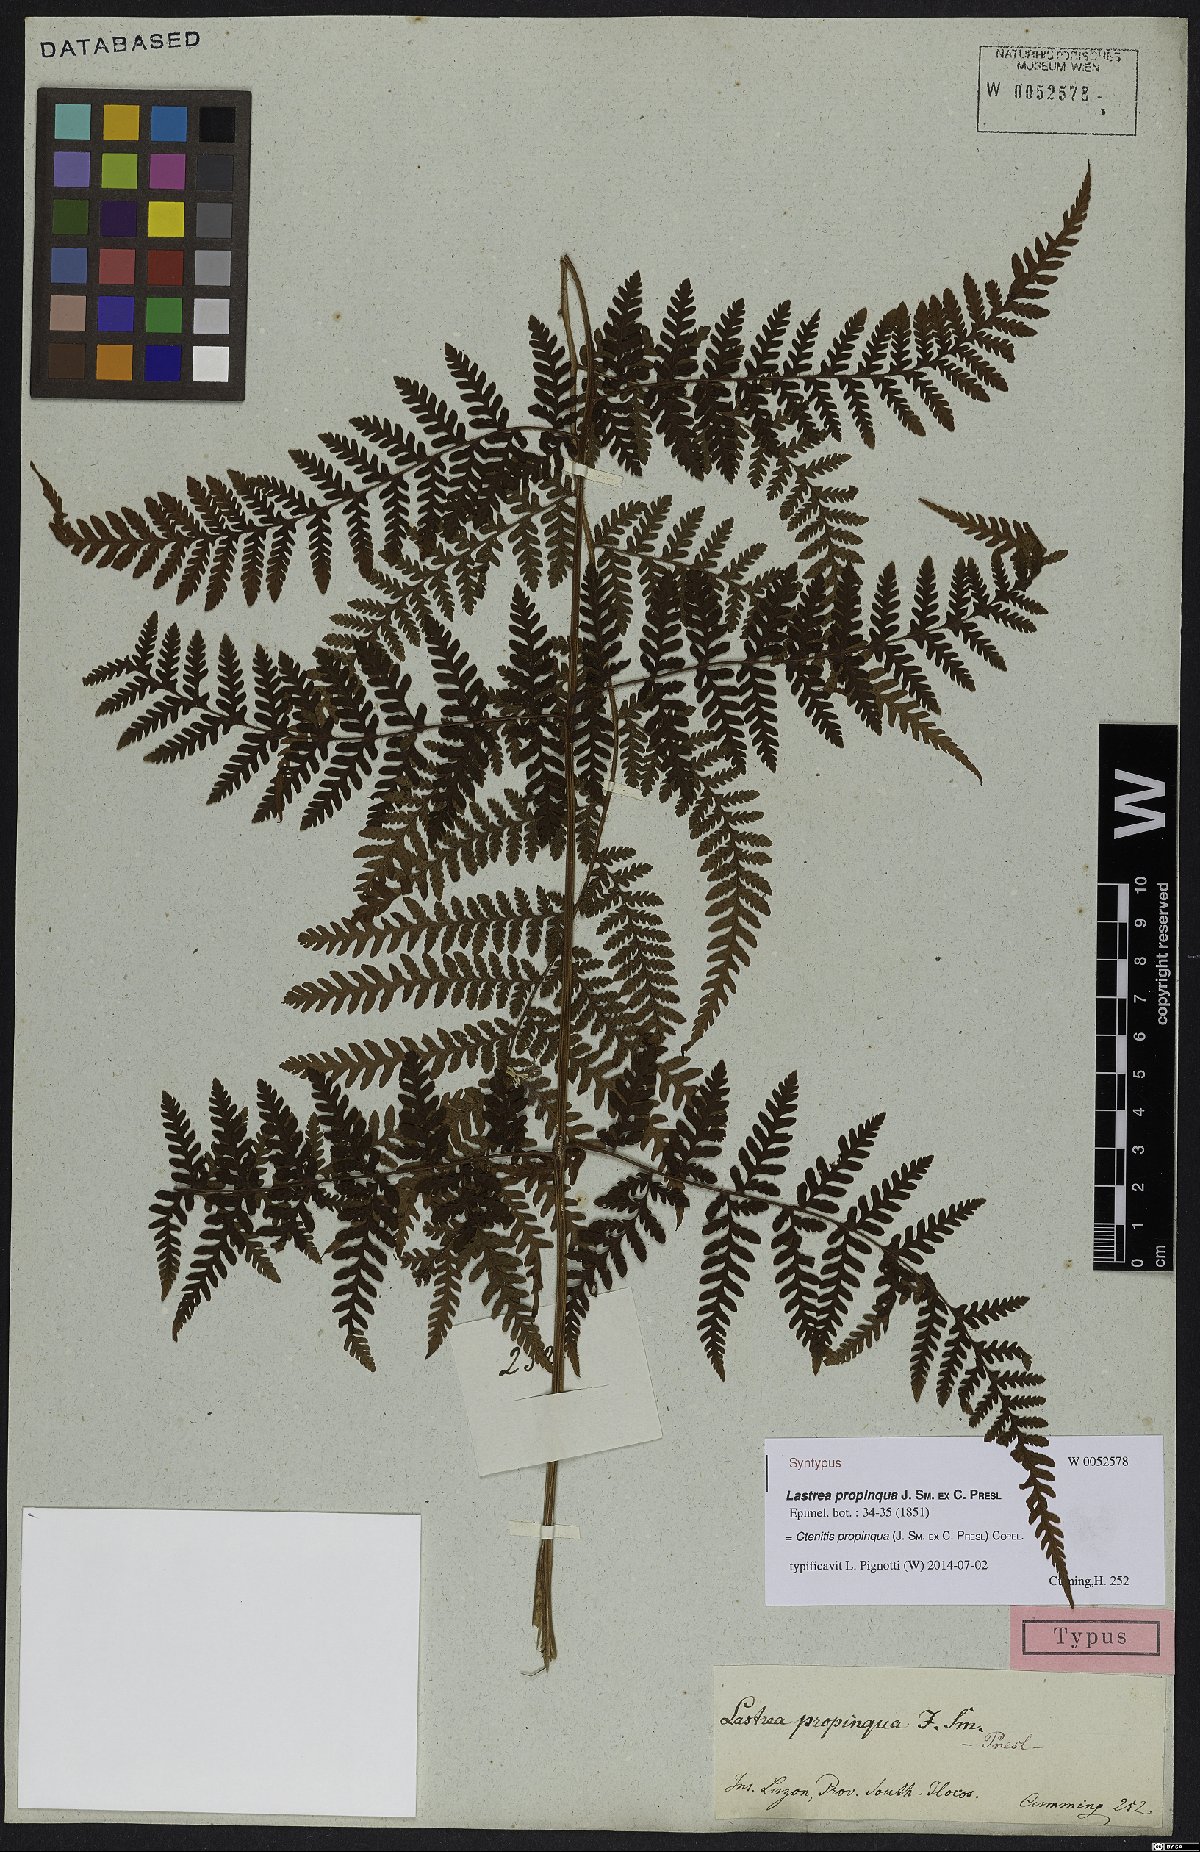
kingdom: Plantae
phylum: Tracheophyta
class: Polypodiopsida
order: Polypodiales
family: Dryopteridaceae
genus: Ctenitis
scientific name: Ctenitis propinqua
